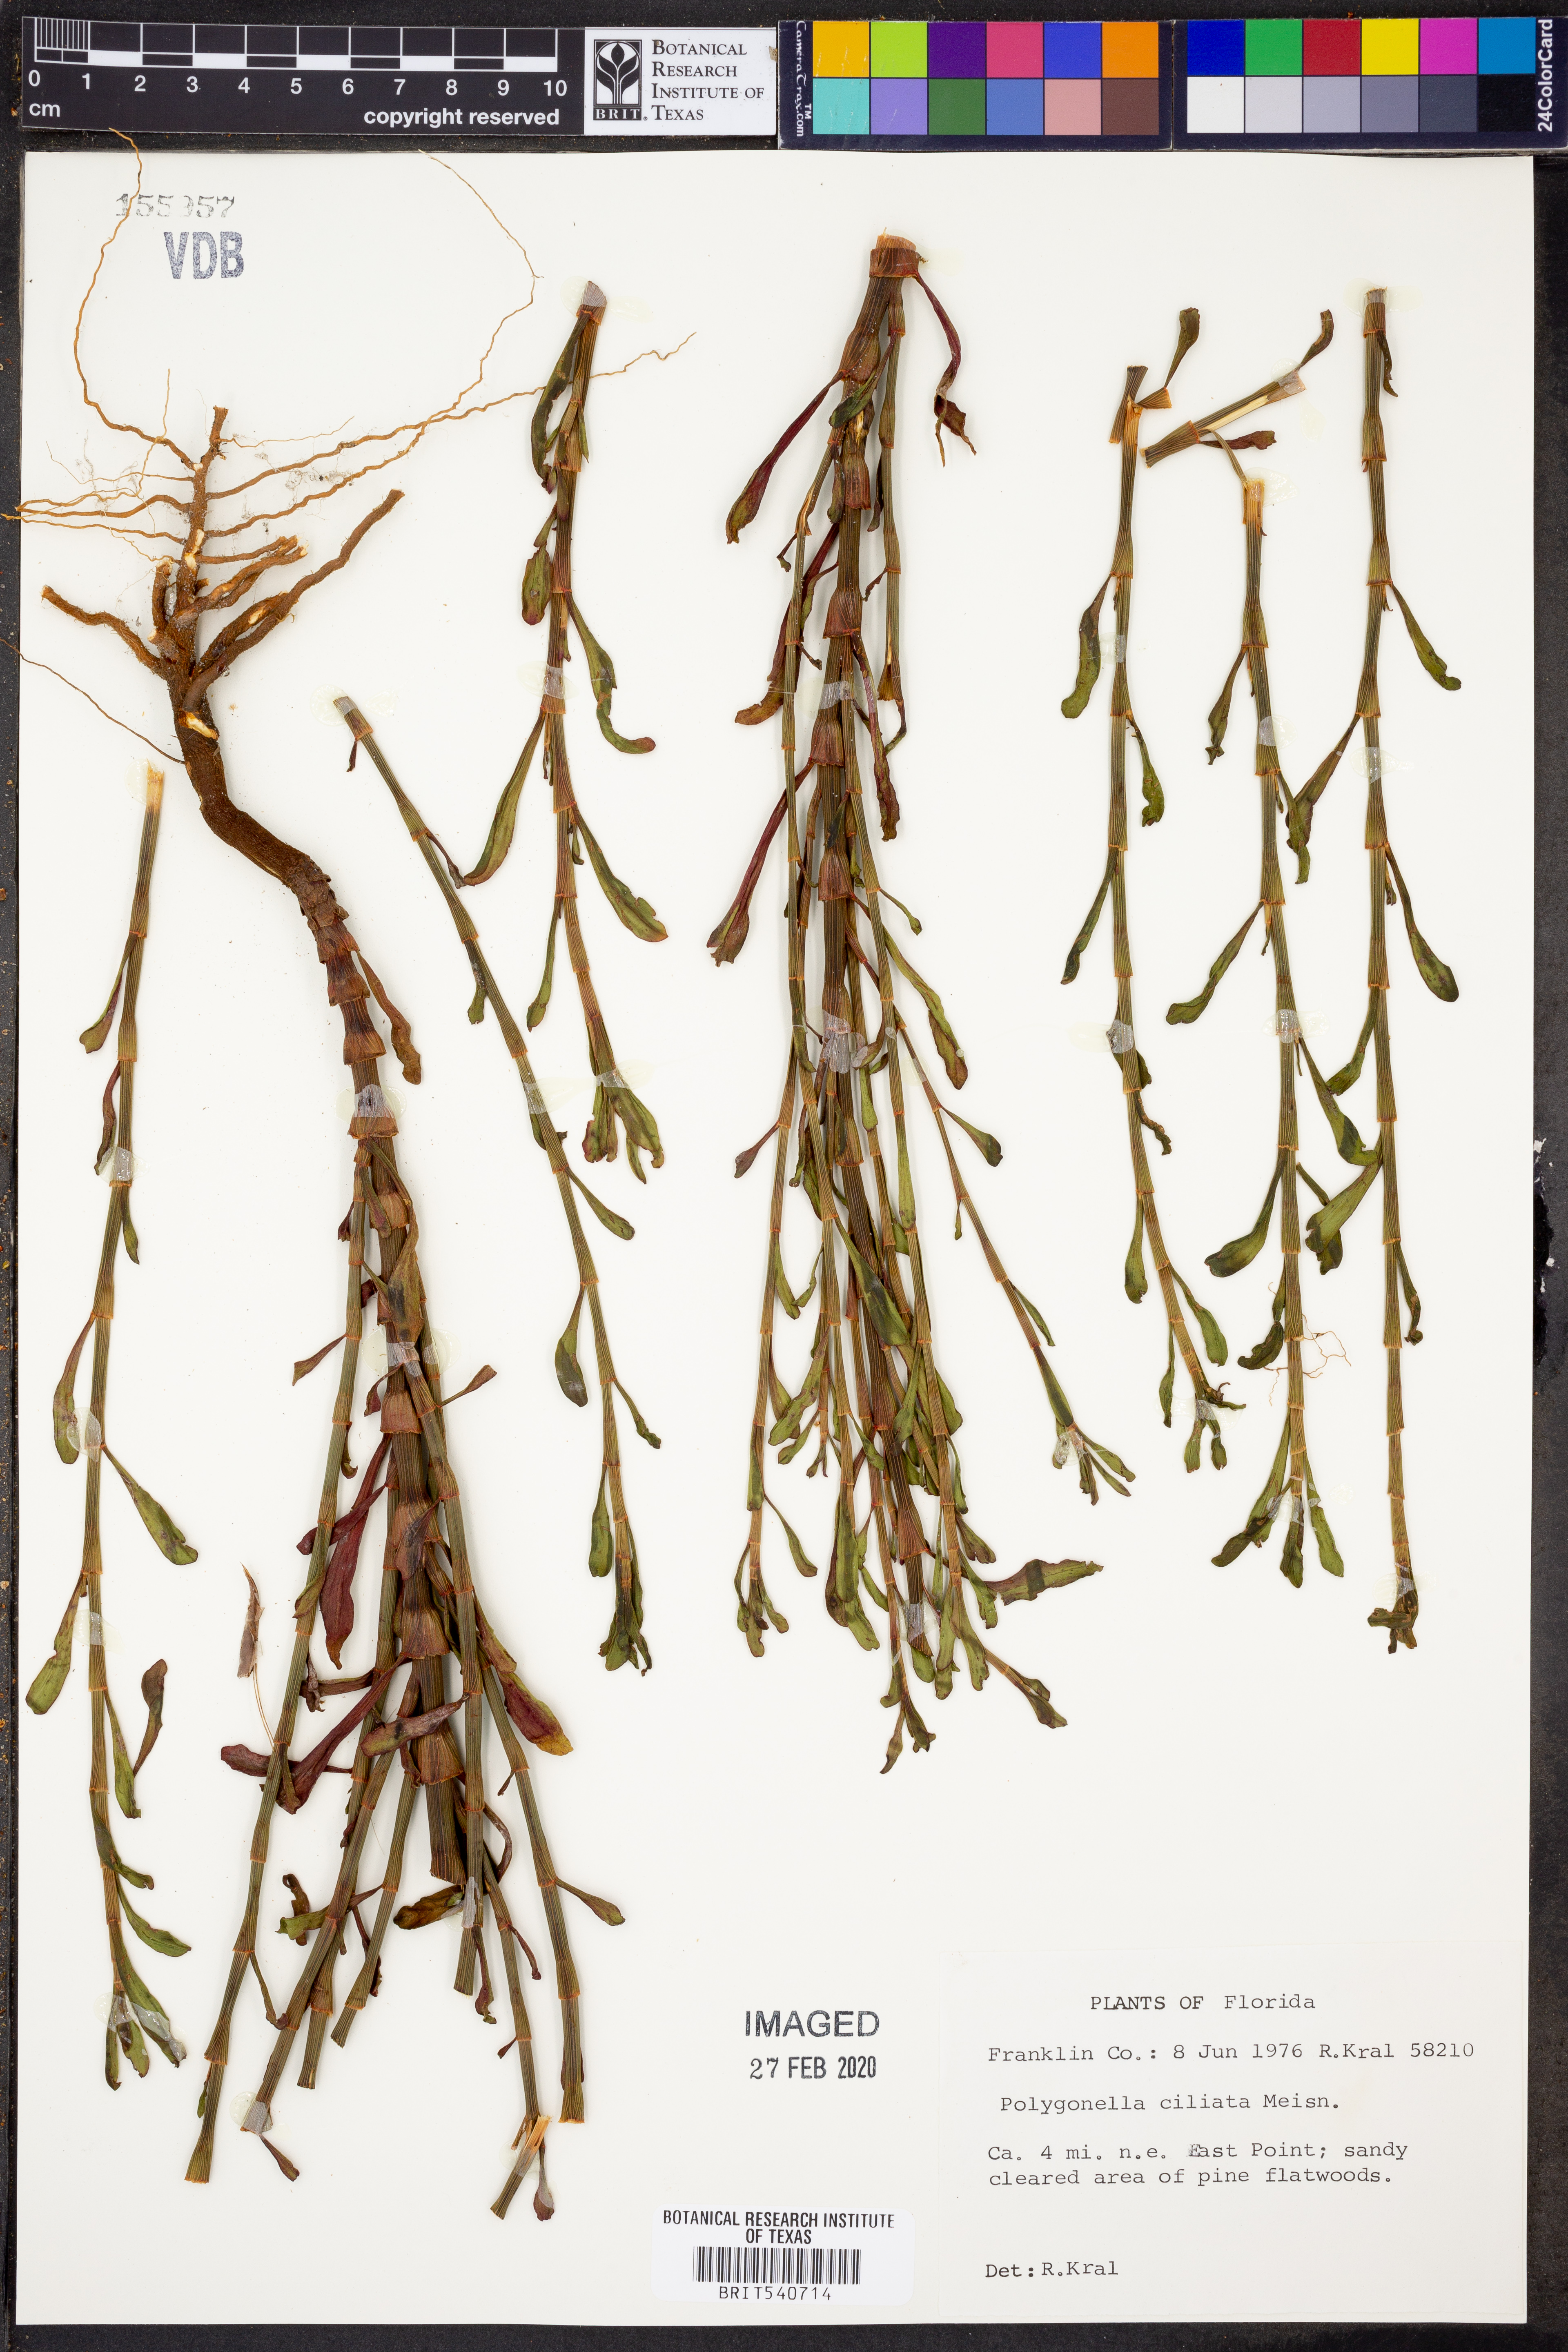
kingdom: Plantae
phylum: Tracheophyta
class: Magnoliopsida
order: Caryophyllales
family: Polygonaceae
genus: Polygonella
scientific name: Polygonella ciliata
